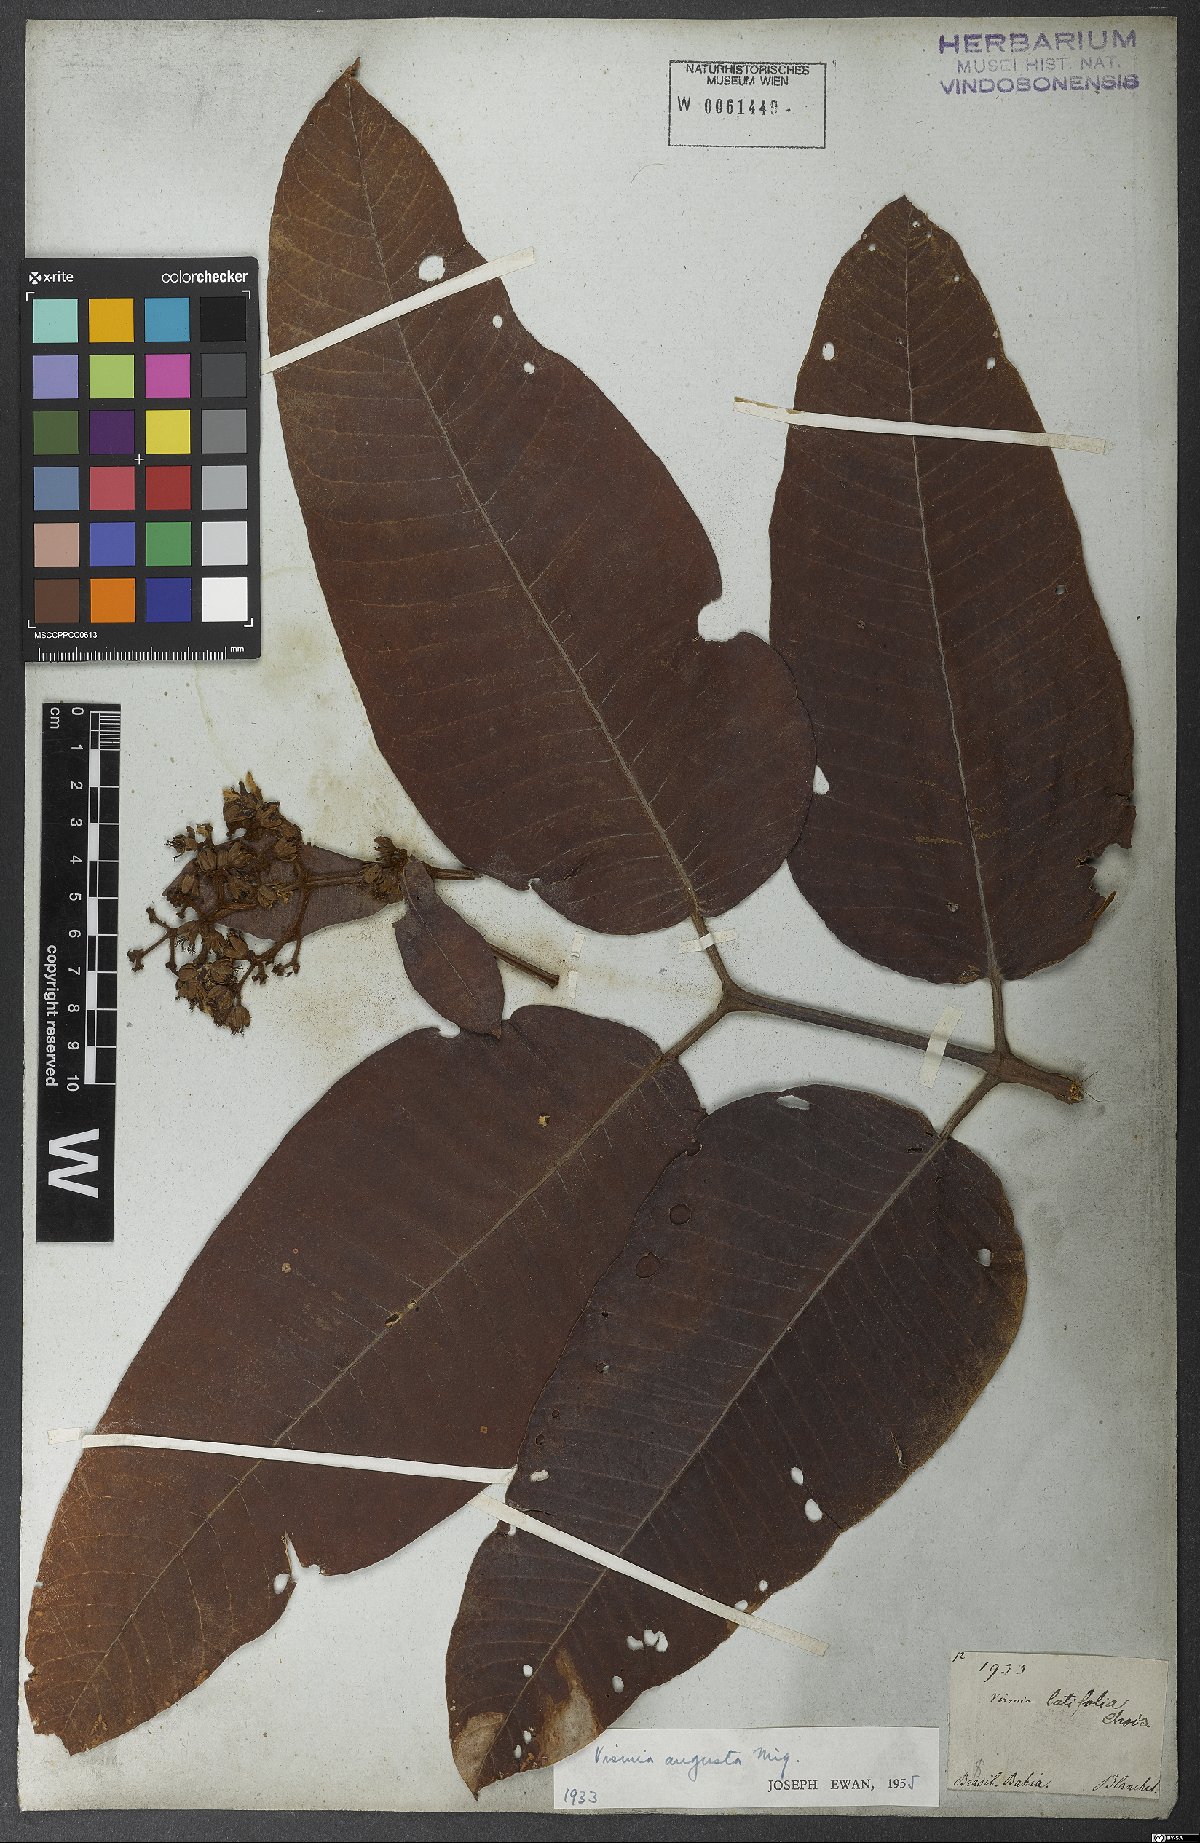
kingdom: Plantae
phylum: Tracheophyta
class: Magnoliopsida
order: Malpighiales
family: Hypericaceae
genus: Vismia
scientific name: Vismia macrophylla
